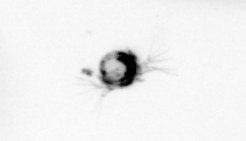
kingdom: Animalia
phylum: Arthropoda
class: Copepoda
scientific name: Copepoda
